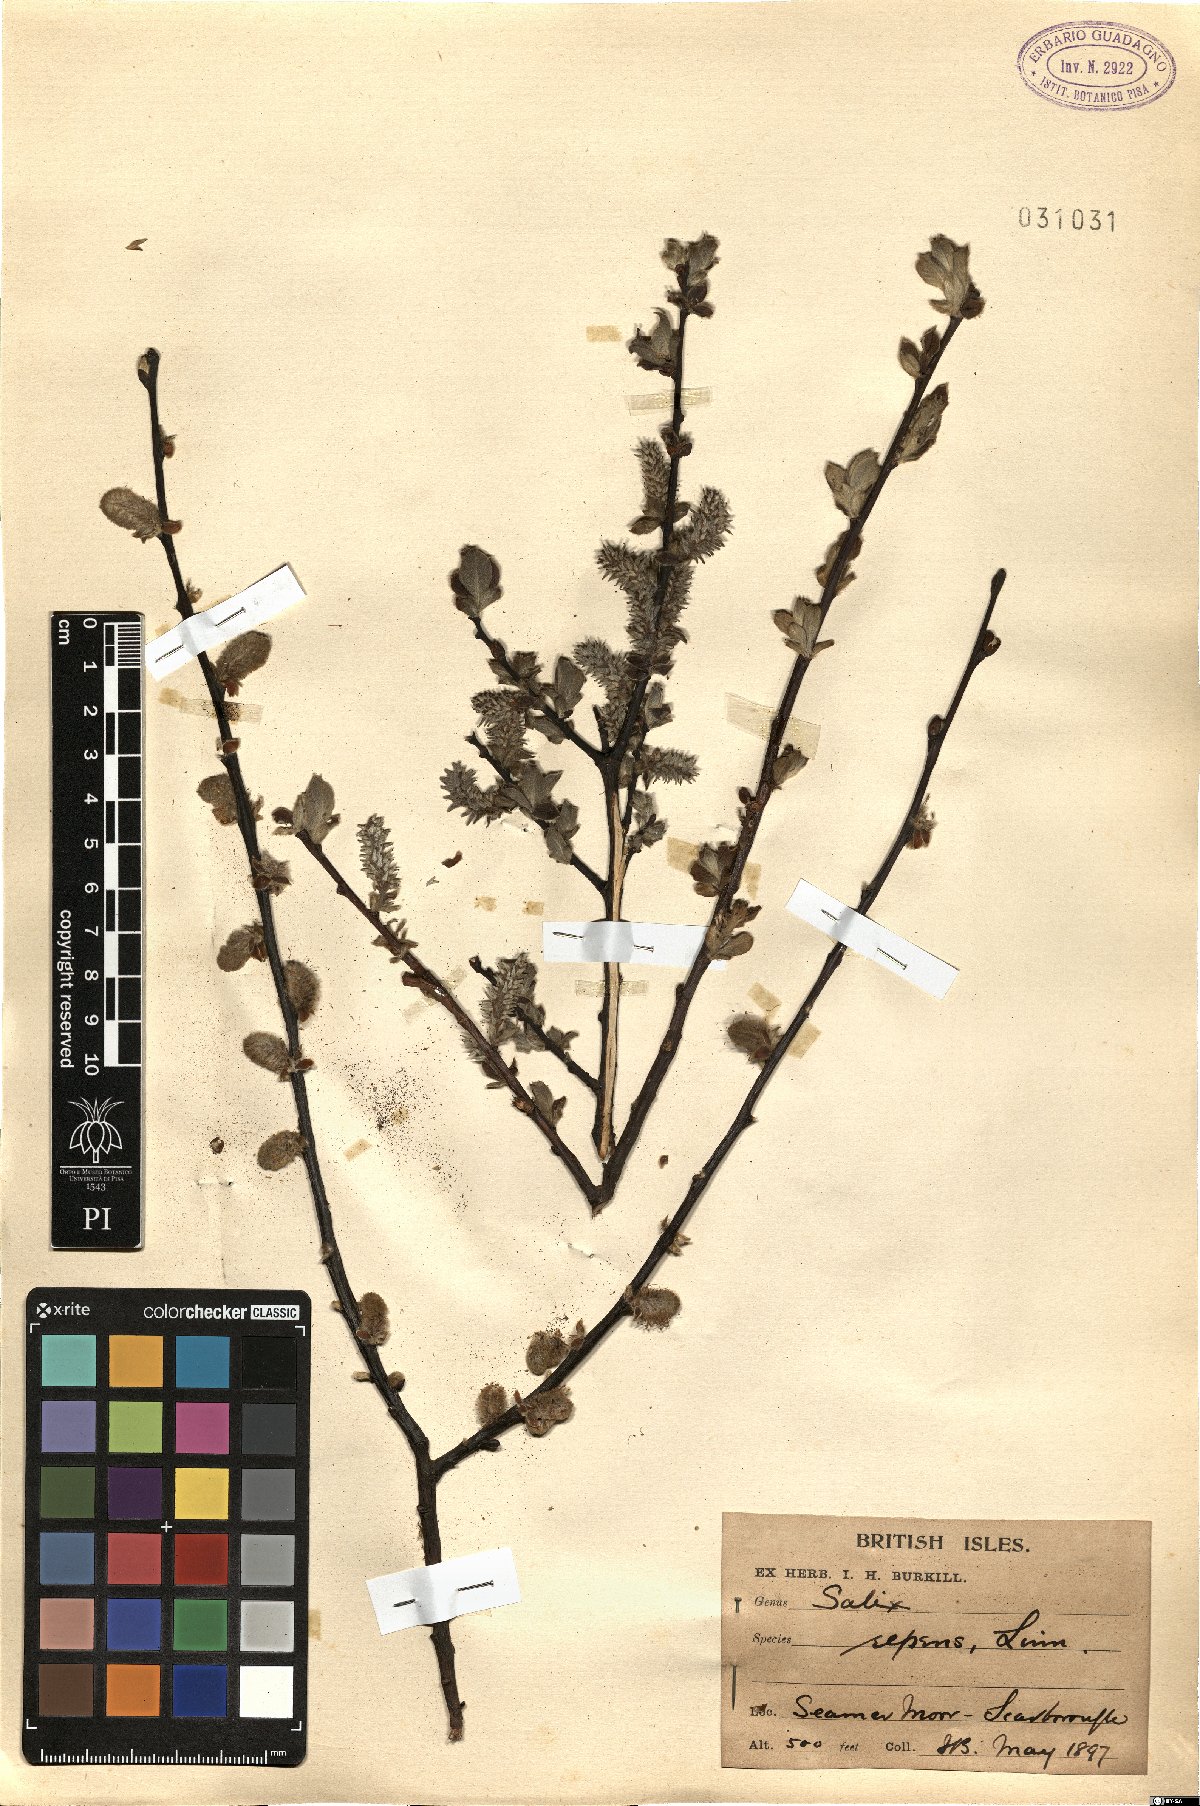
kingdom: Plantae
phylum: Tracheophyta
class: Magnoliopsida
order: Malpighiales
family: Salicaceae
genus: Salix
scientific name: Salix repens
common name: Creeping willow
